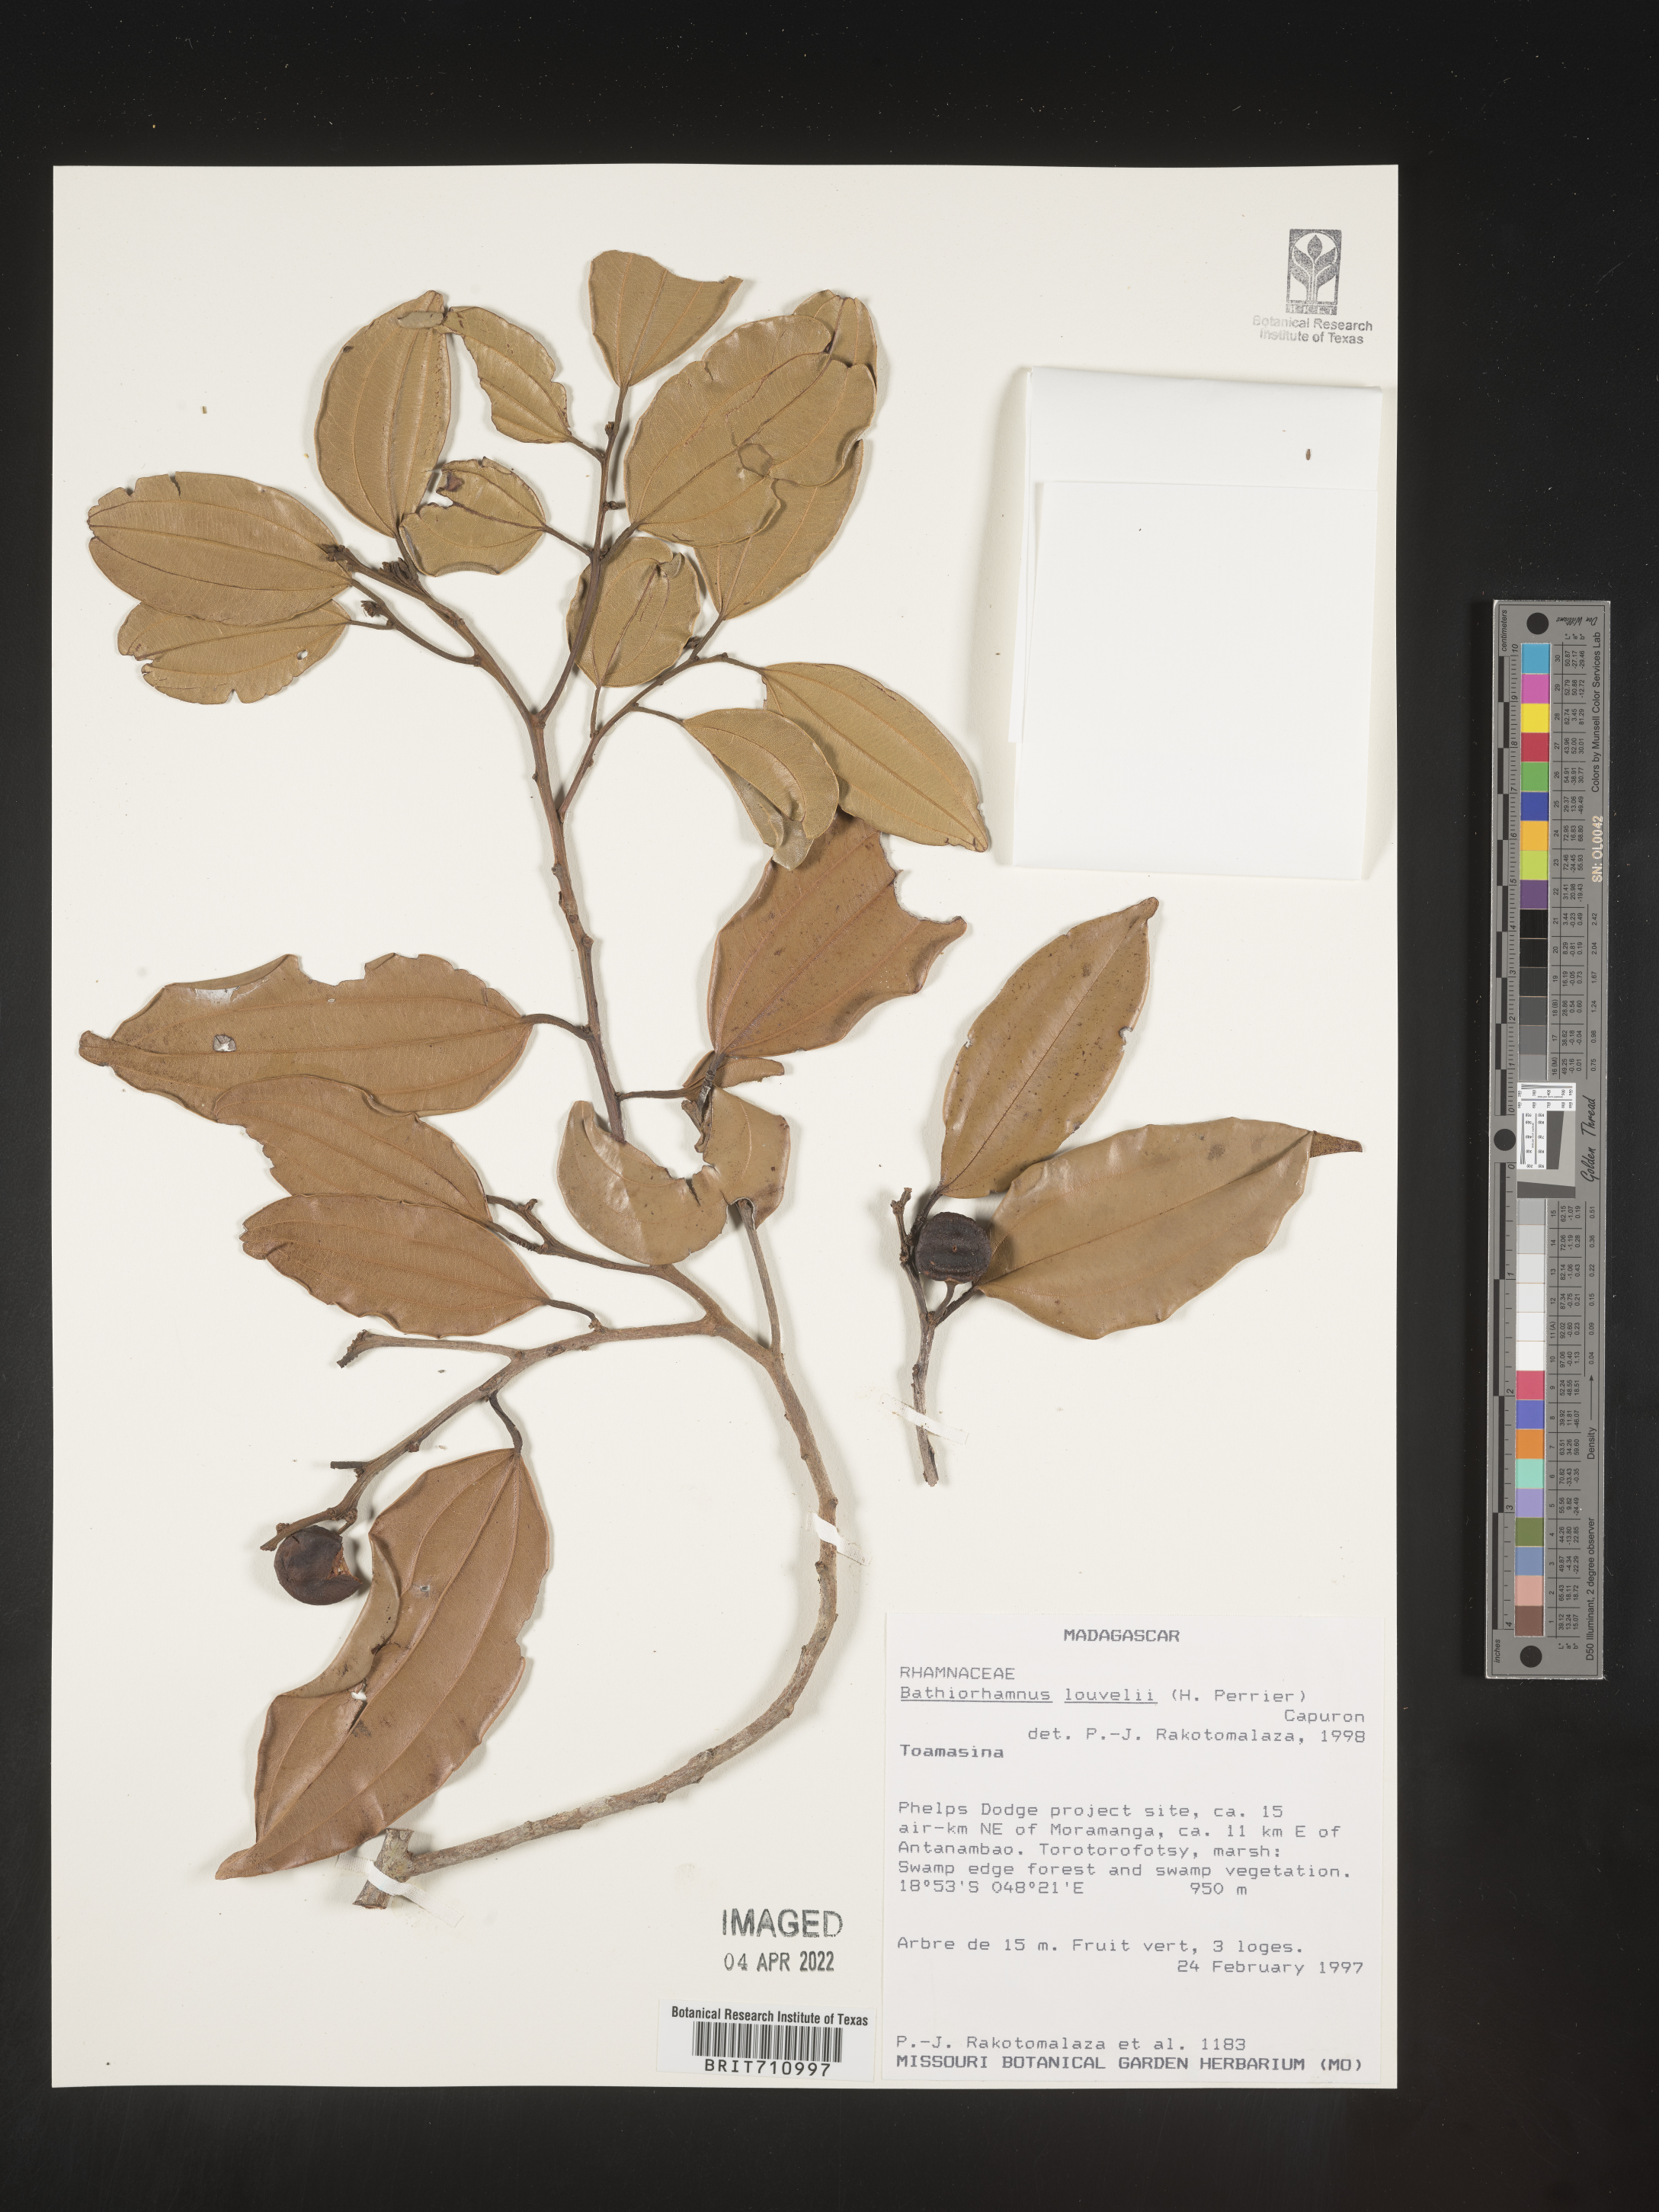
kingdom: Plantae
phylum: Tracheophyta
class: Magnoliopsida
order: Rosales
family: Rhamnaceae
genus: Bathiorhamnus
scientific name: Bathiorhamnus
